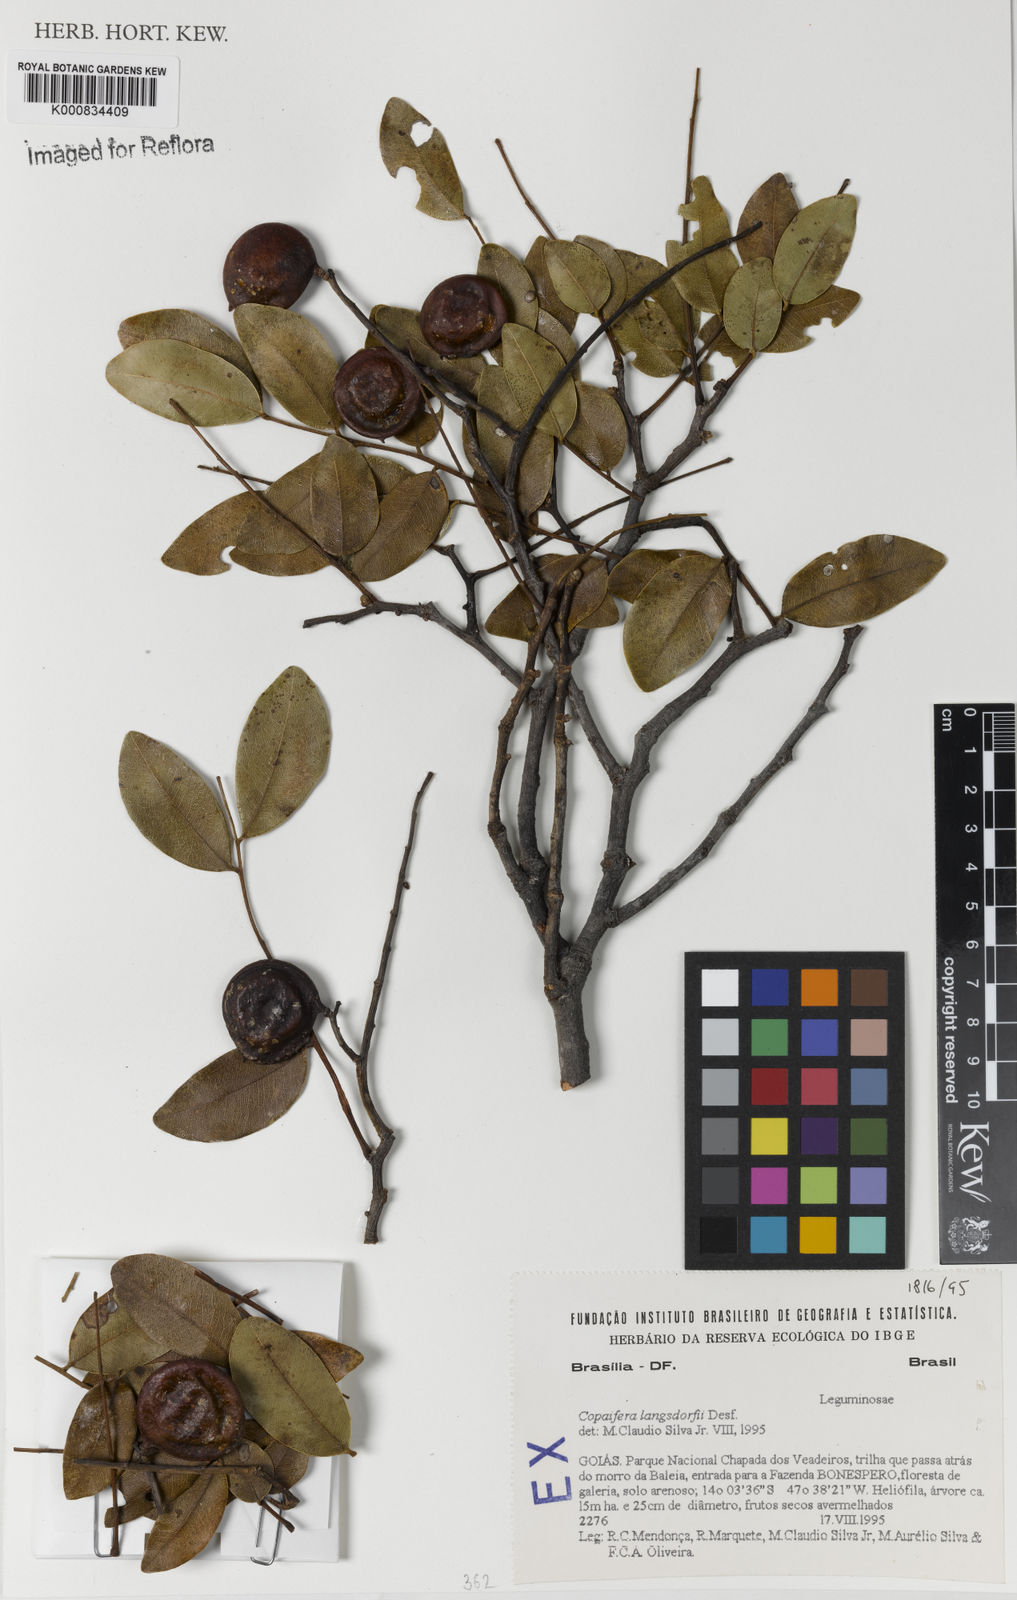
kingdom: Plantae
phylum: Tracheophyta
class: Magnoliopsida
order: Fabales
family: Fabaceae
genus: Copaifera
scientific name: Copaifera langsdorffii
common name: Brazilian diesel tree
